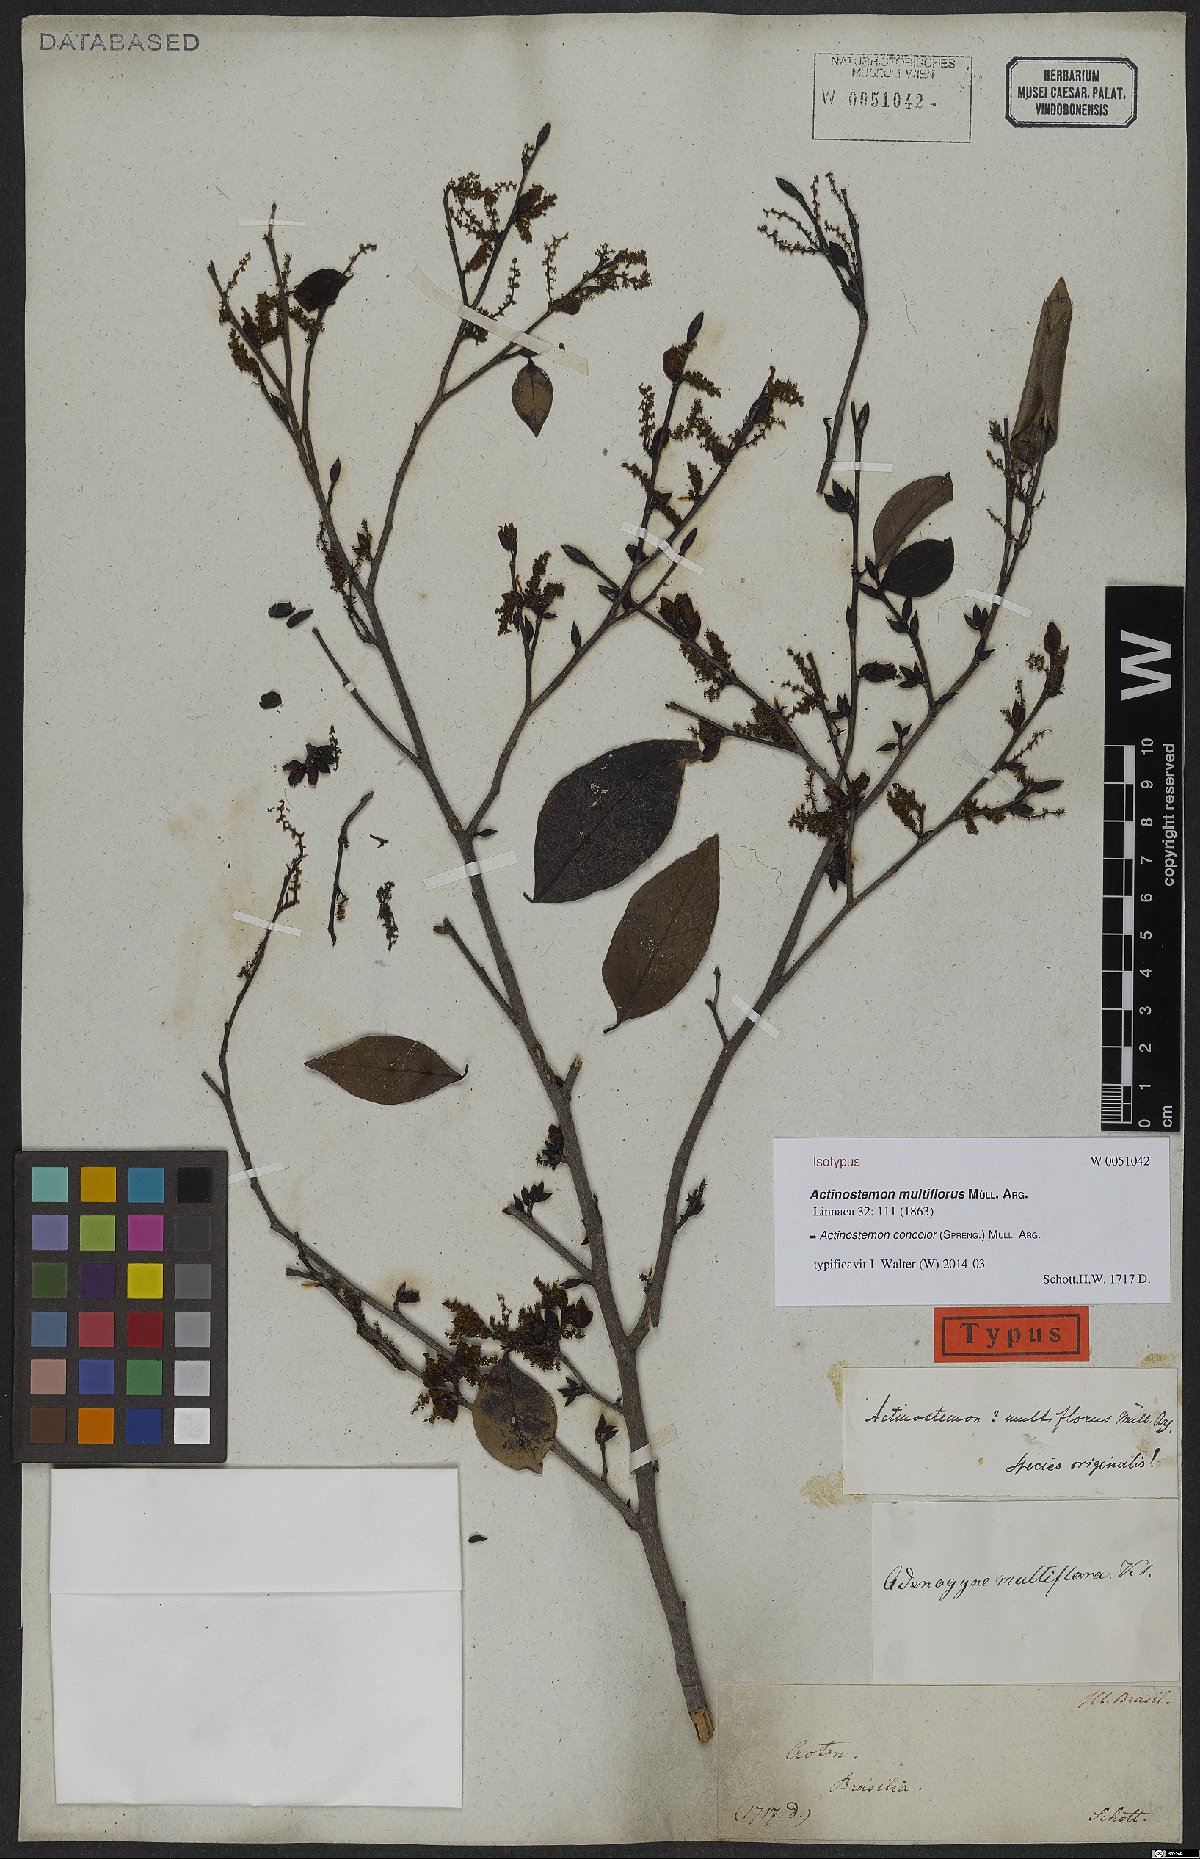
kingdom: Plantae
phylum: Tracheophyta
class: Magnoliopsida
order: Malpighiales
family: Euphorbiaceae
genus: Actinostemon
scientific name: Actinostemon concolor
